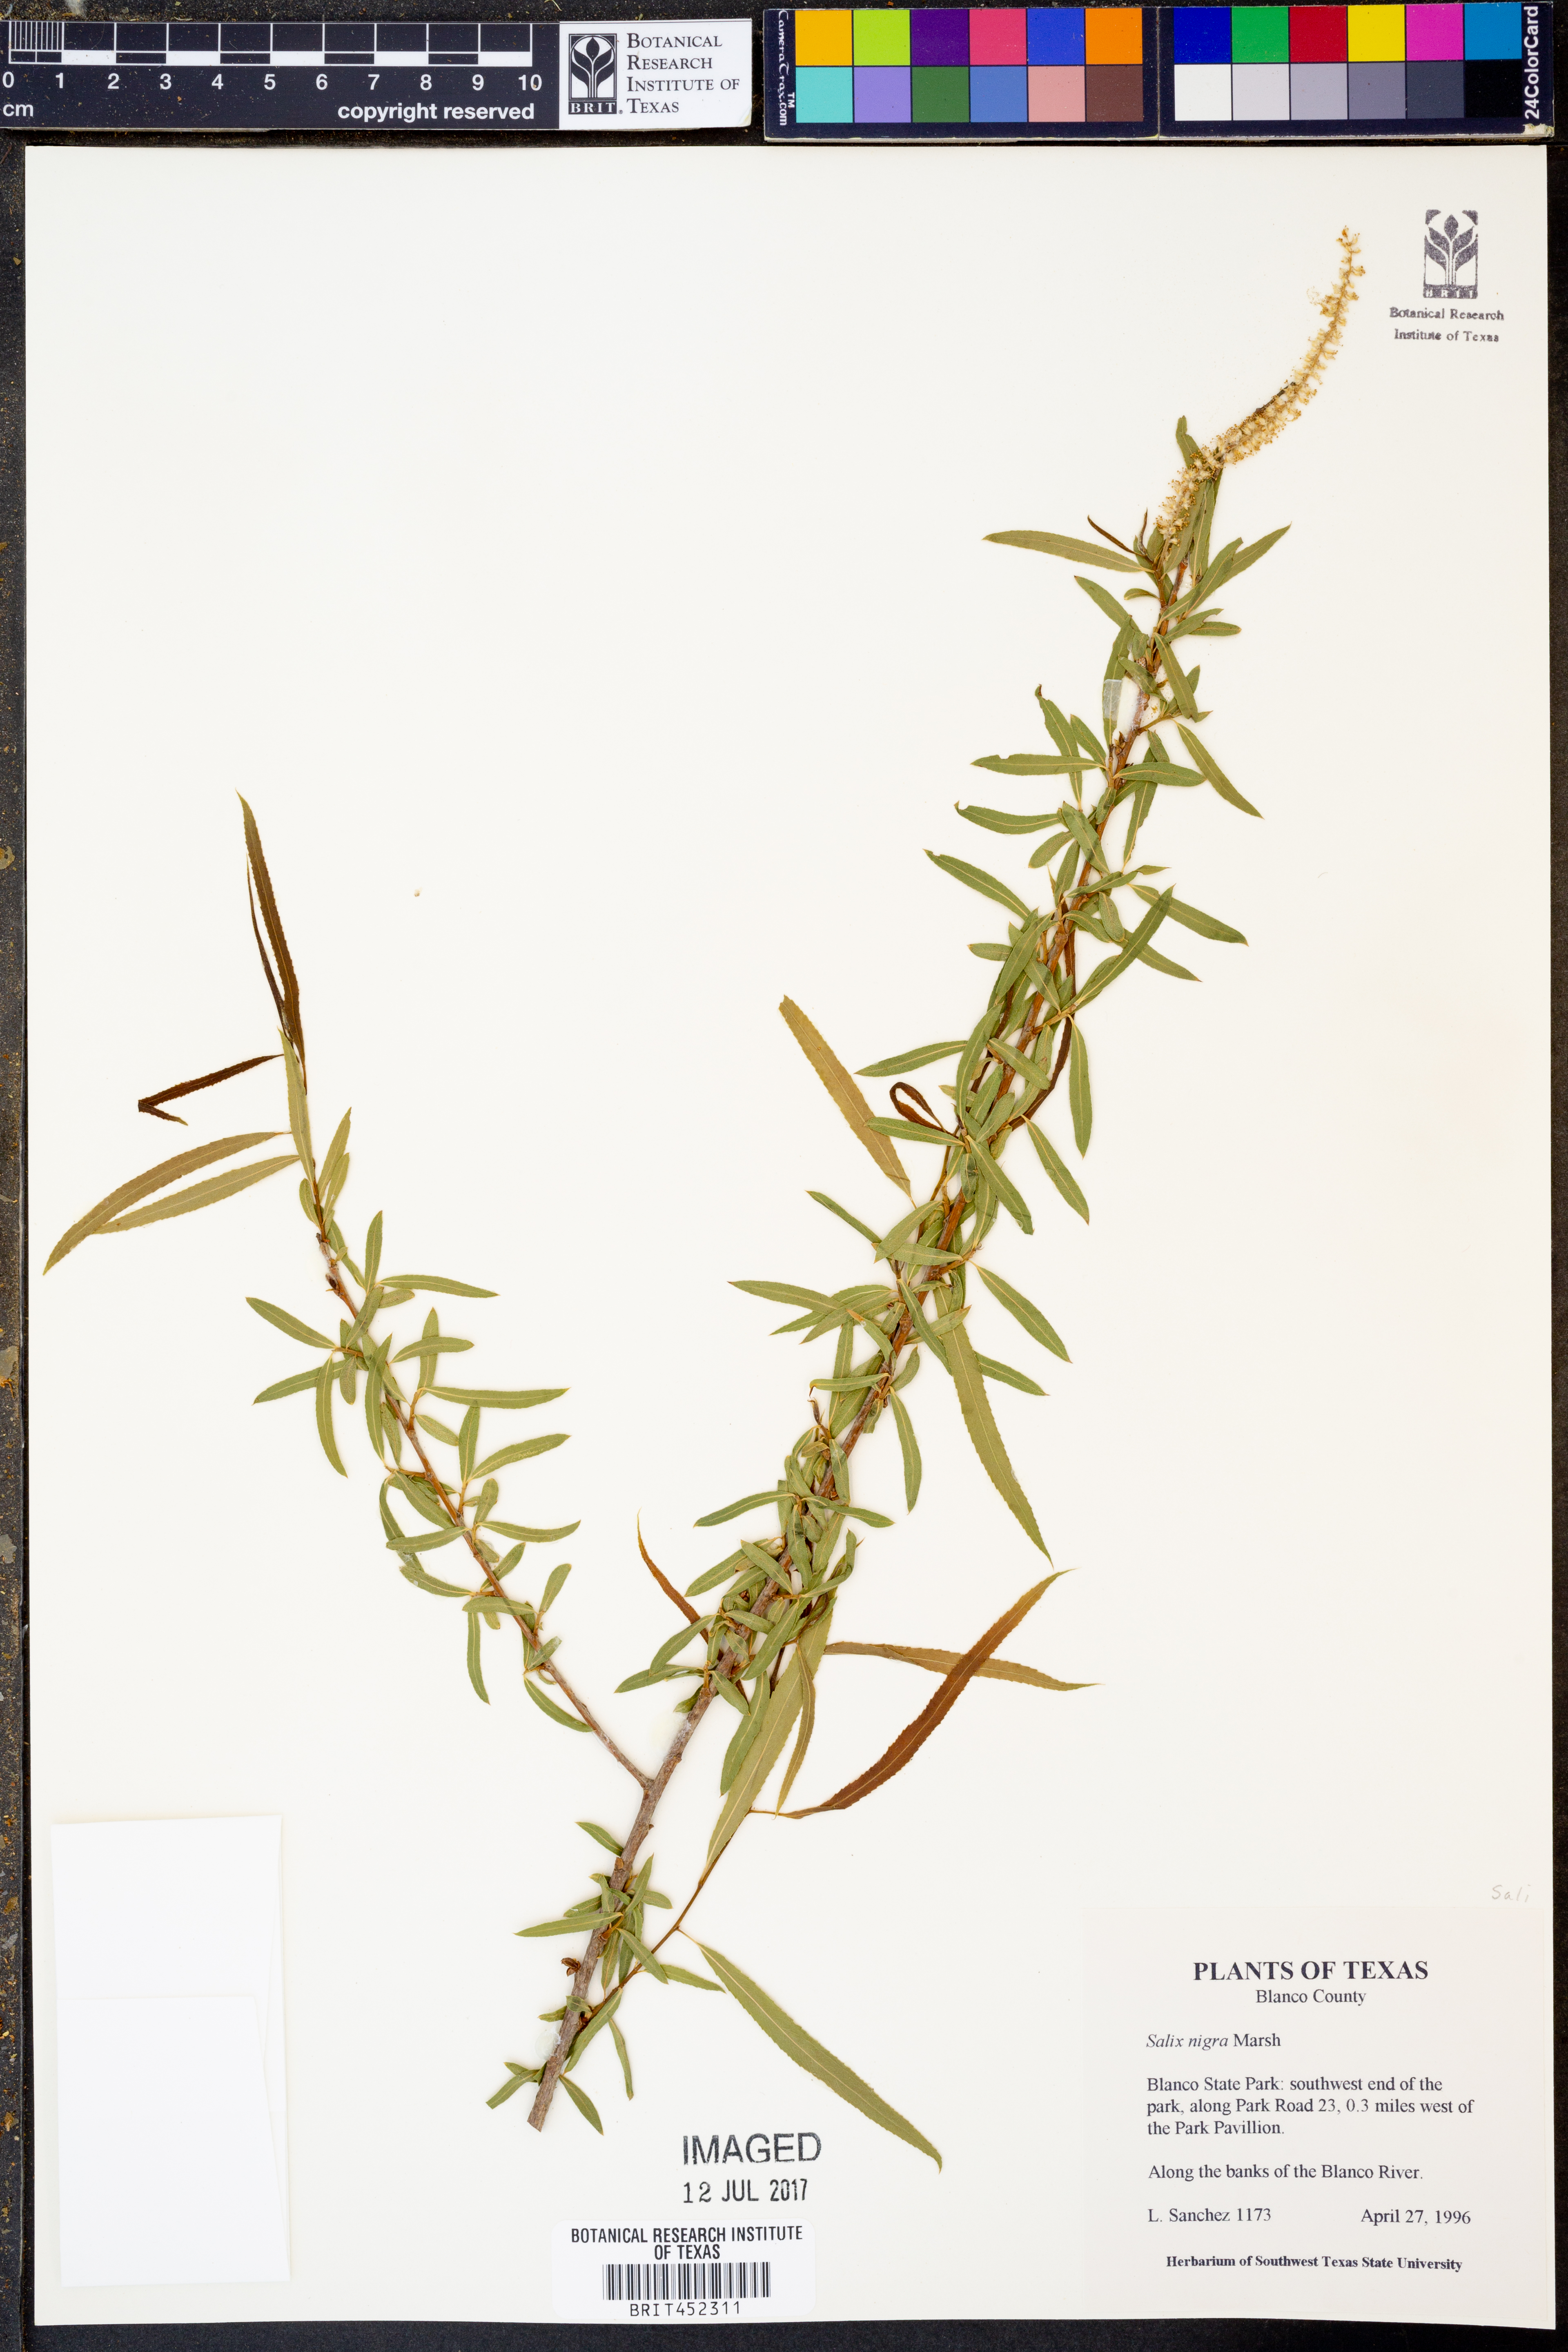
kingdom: Plantae
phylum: Tracheophyta
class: Magnoliopsida
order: Malpighiales
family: Salicaceae
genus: Salix
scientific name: Salix nigra
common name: Black willow
